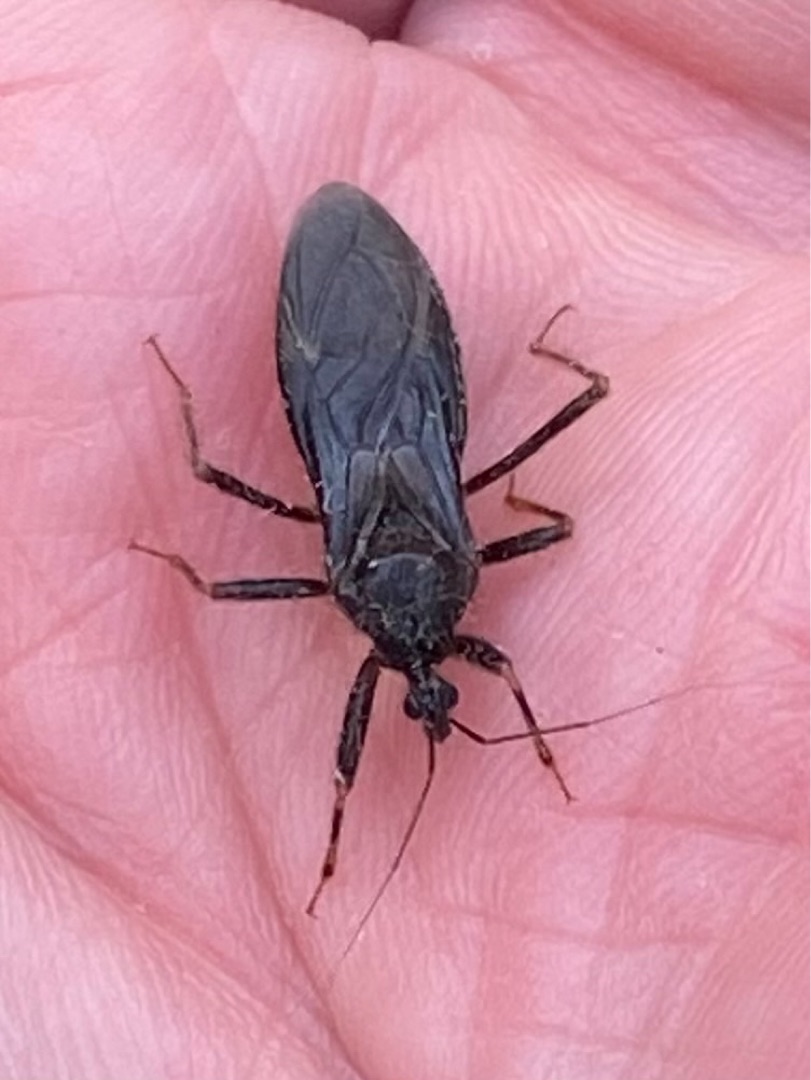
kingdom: Animalia
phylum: Arthropoda
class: Insecta
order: Hemiptera
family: Reduviidae
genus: Reduvius
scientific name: Reduvius personatus
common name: Skarntæge
